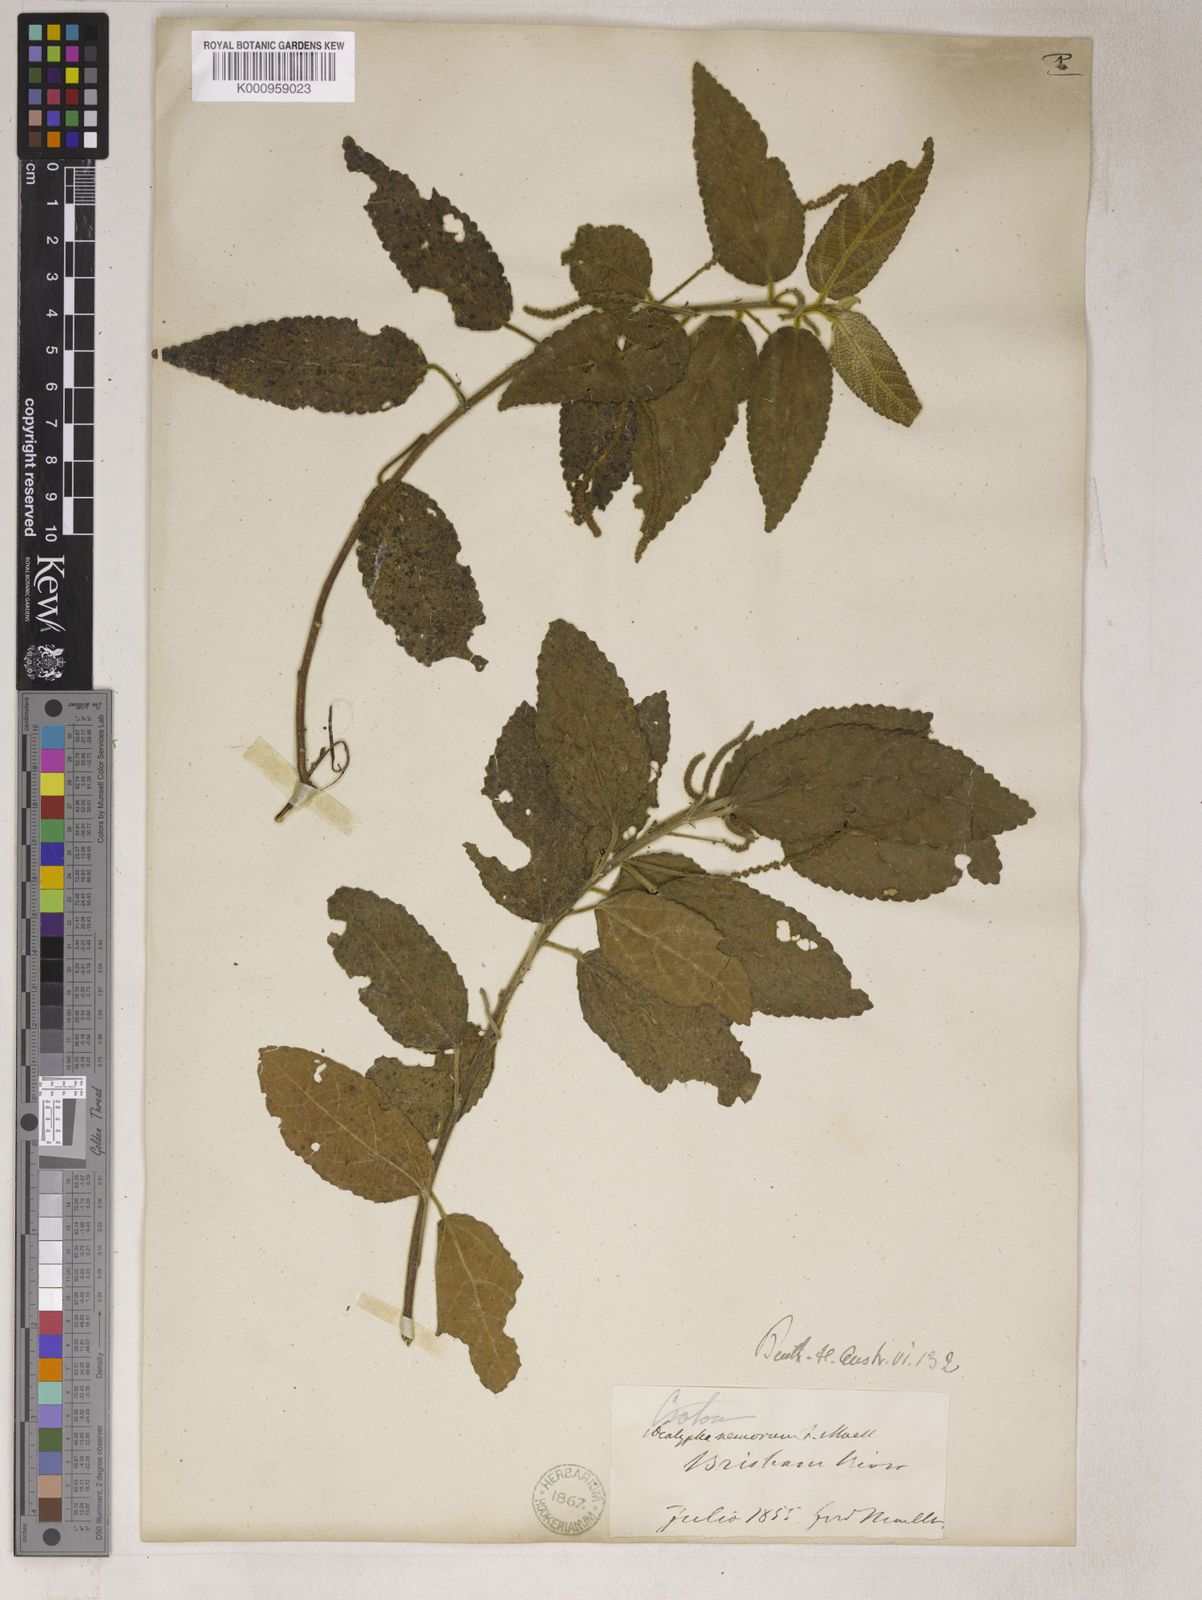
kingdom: Plantae
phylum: Tracheophyta
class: Magnoliopsida
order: Malpighiales
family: Euphorbiaceae
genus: Acalypha
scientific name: Acalypha
